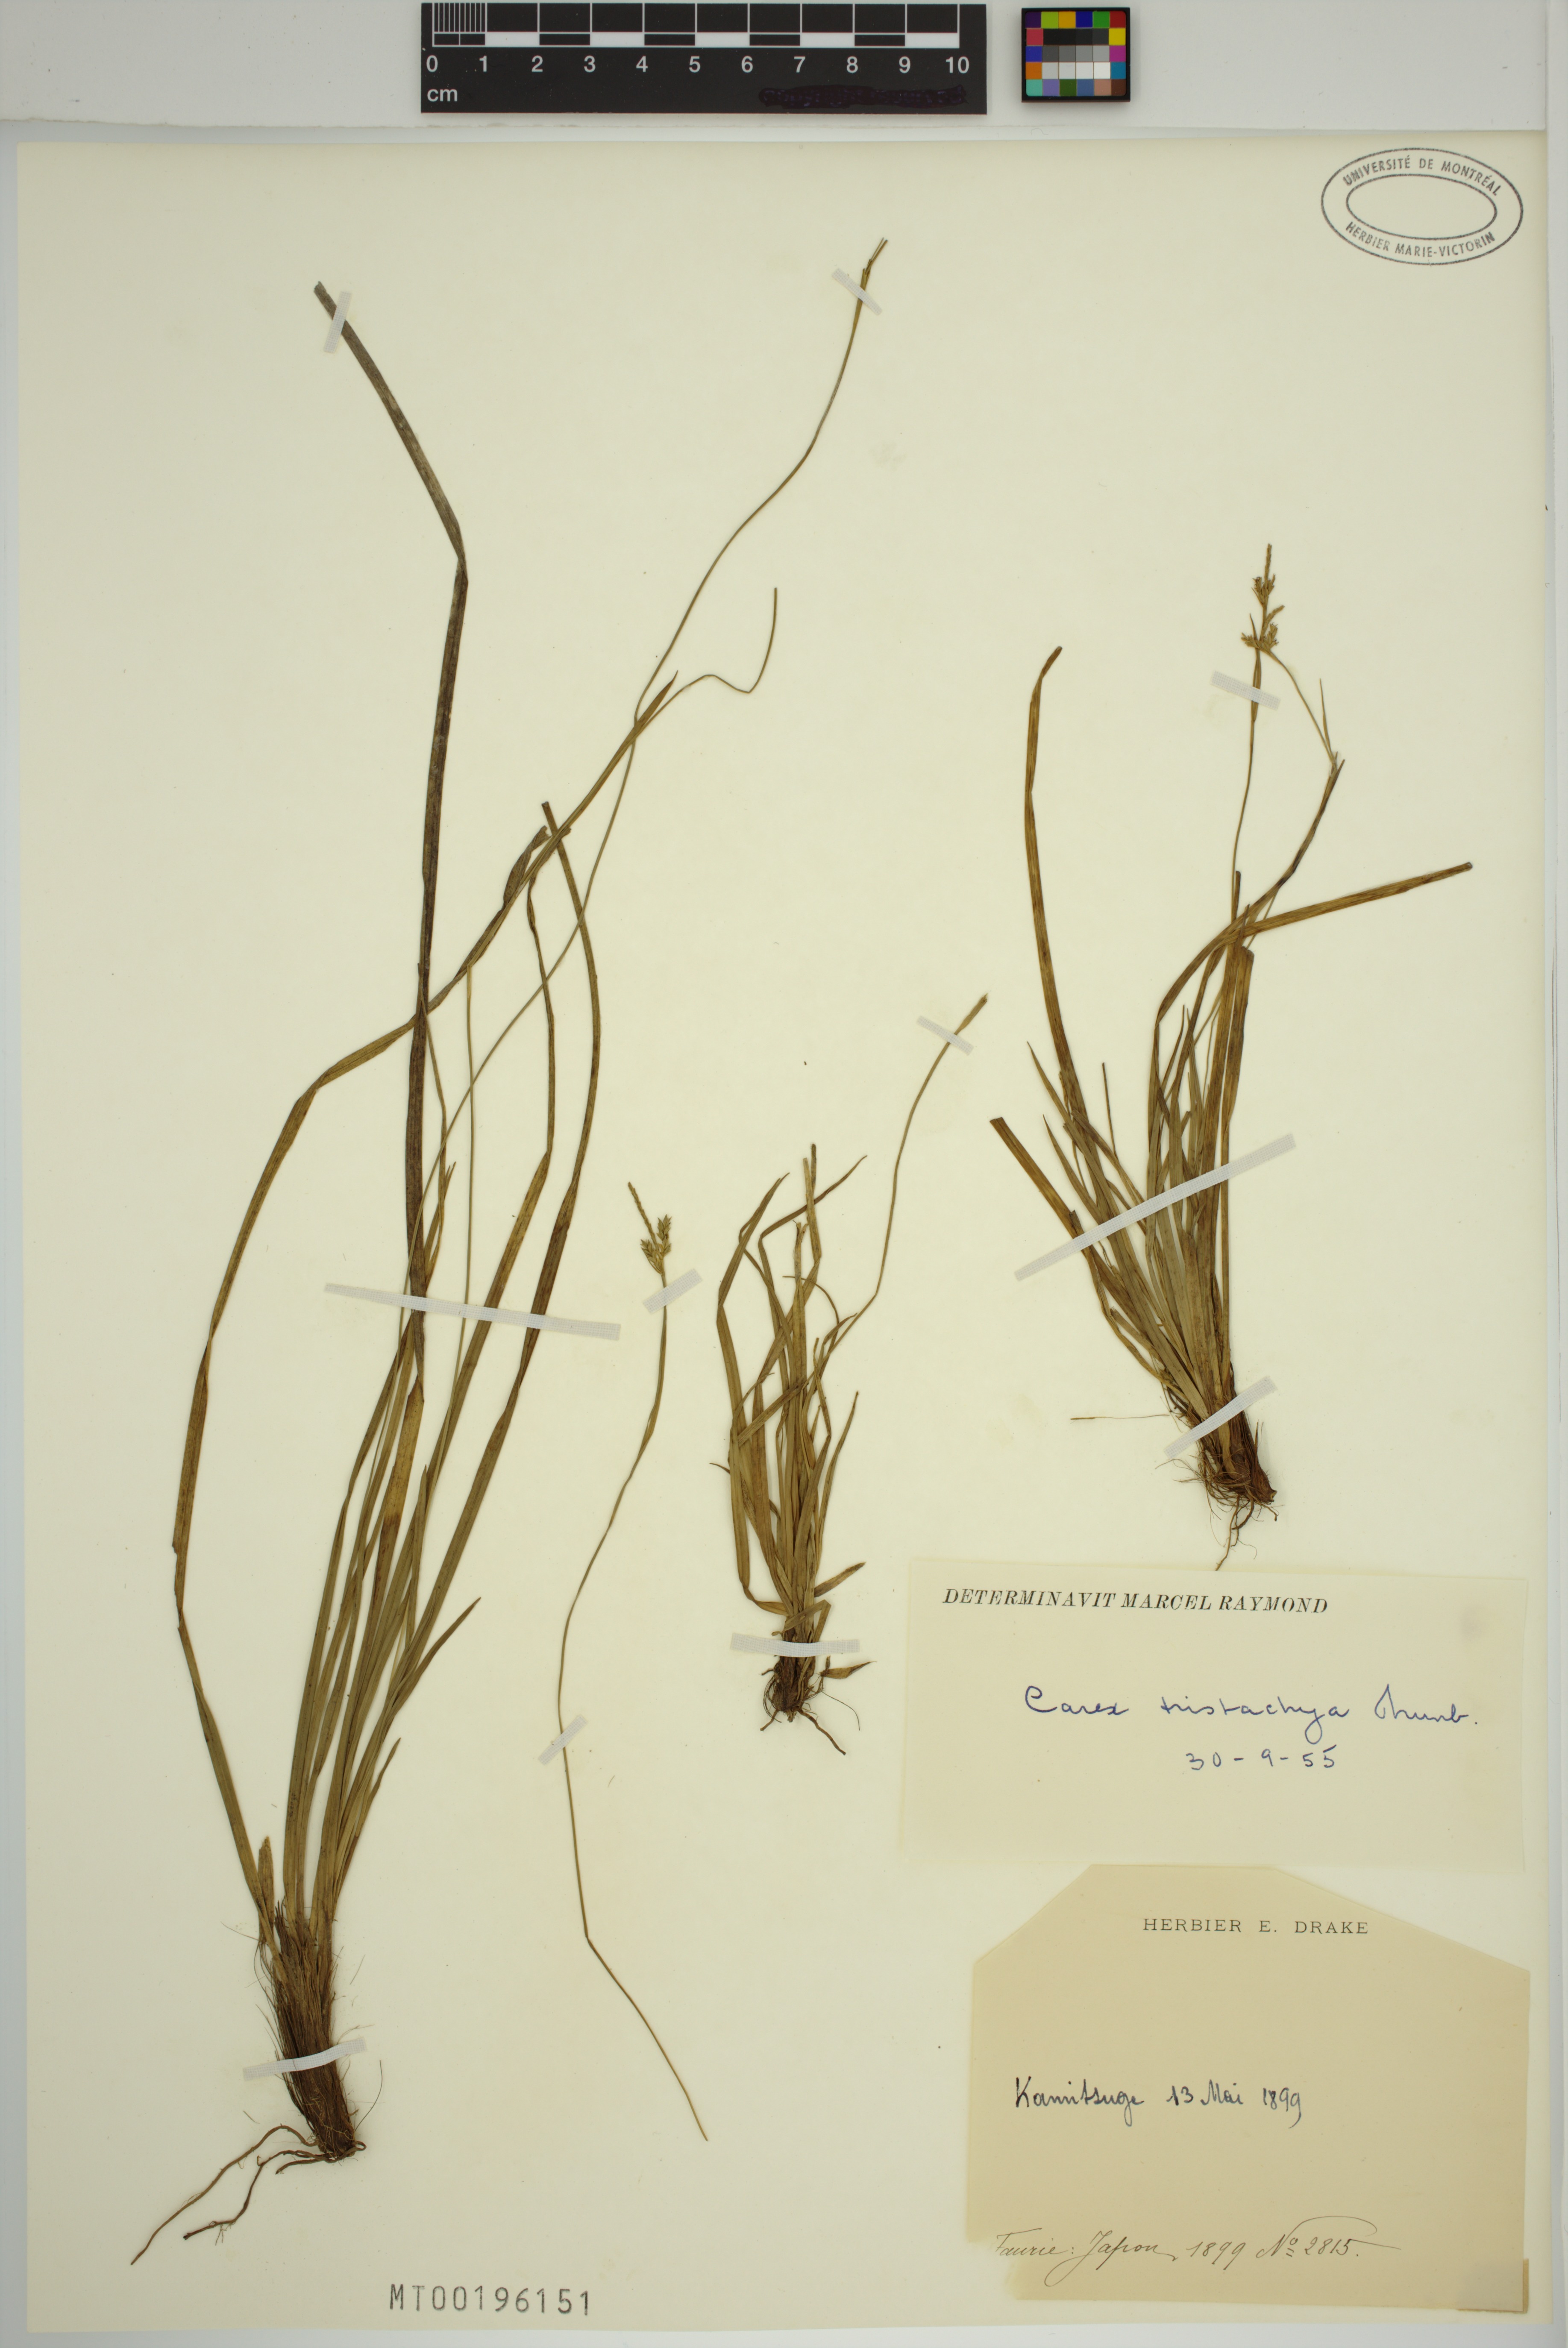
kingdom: Plantae
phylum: Tracheophyta
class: Liliopsida
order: Poales
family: Cyperaceae
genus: Carex
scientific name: Carex tristachya
